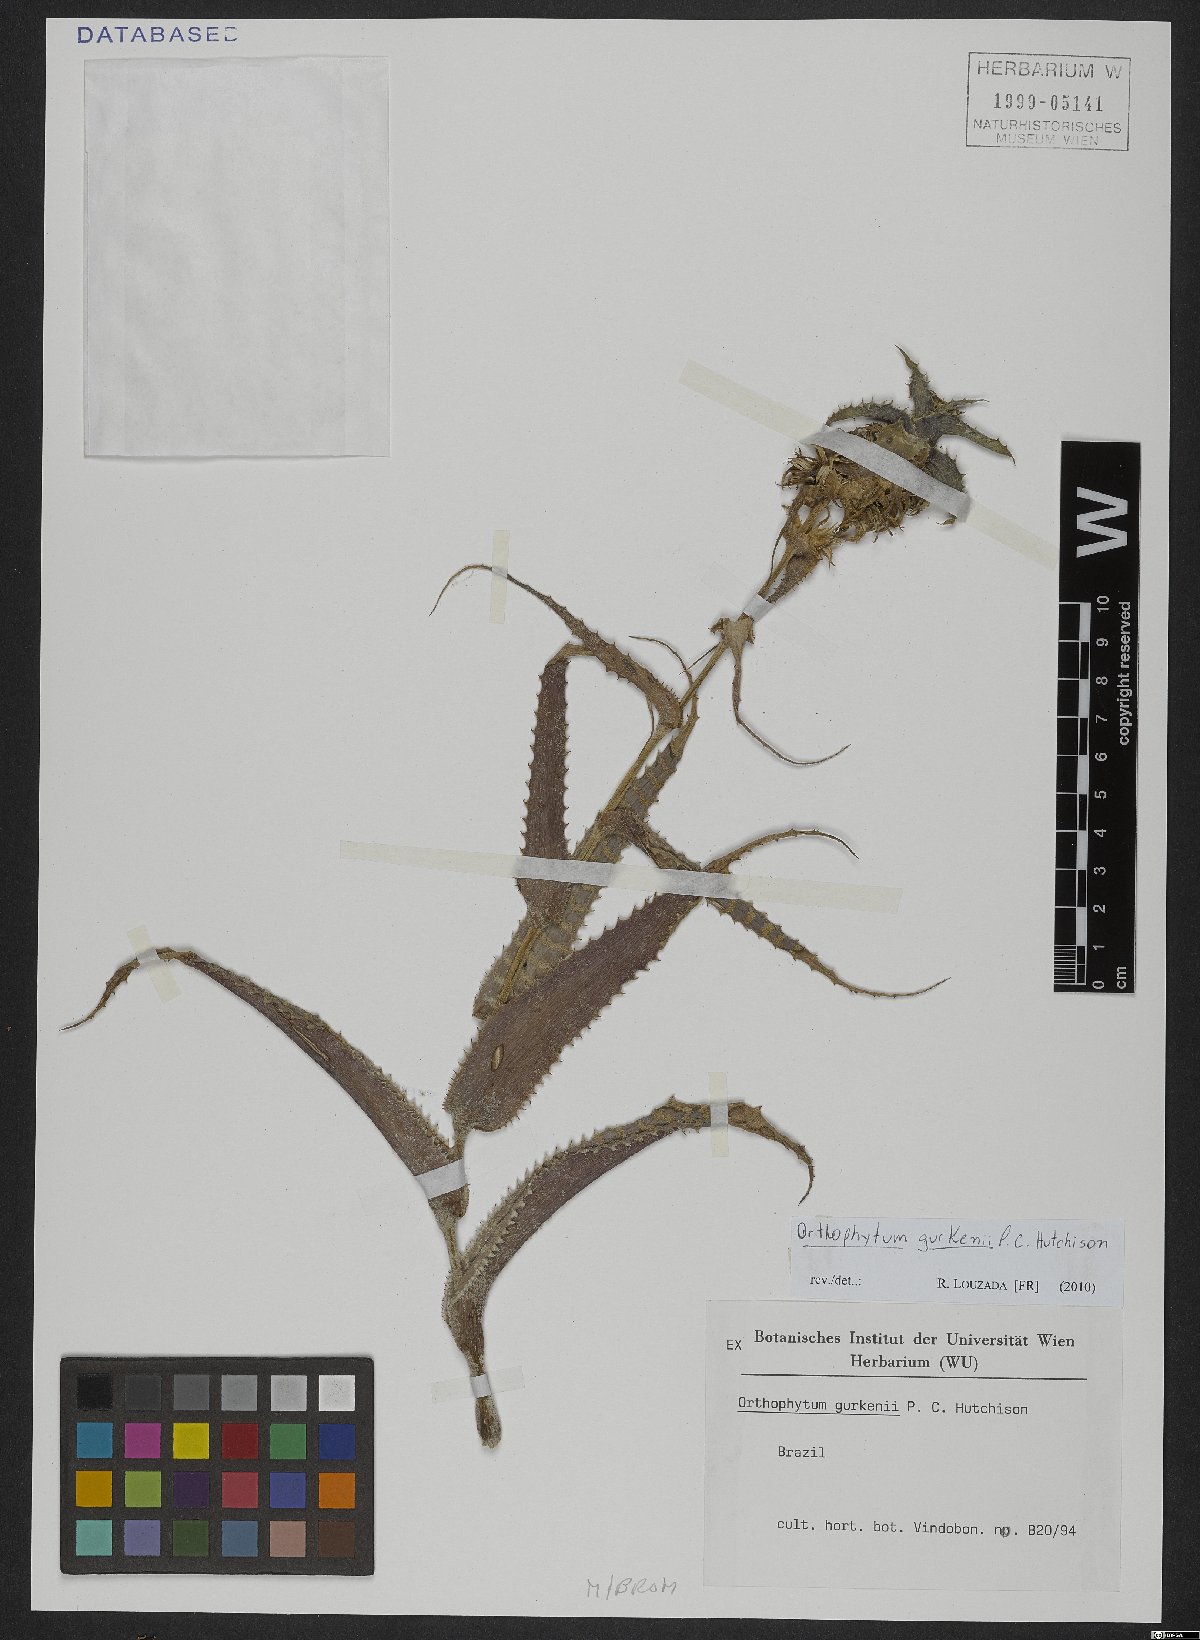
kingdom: Plantae
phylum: Tracheophyta
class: Liliopsida
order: Poales
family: Bromeliaceae
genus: Orthophytum
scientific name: Orthophytum gurkenii
